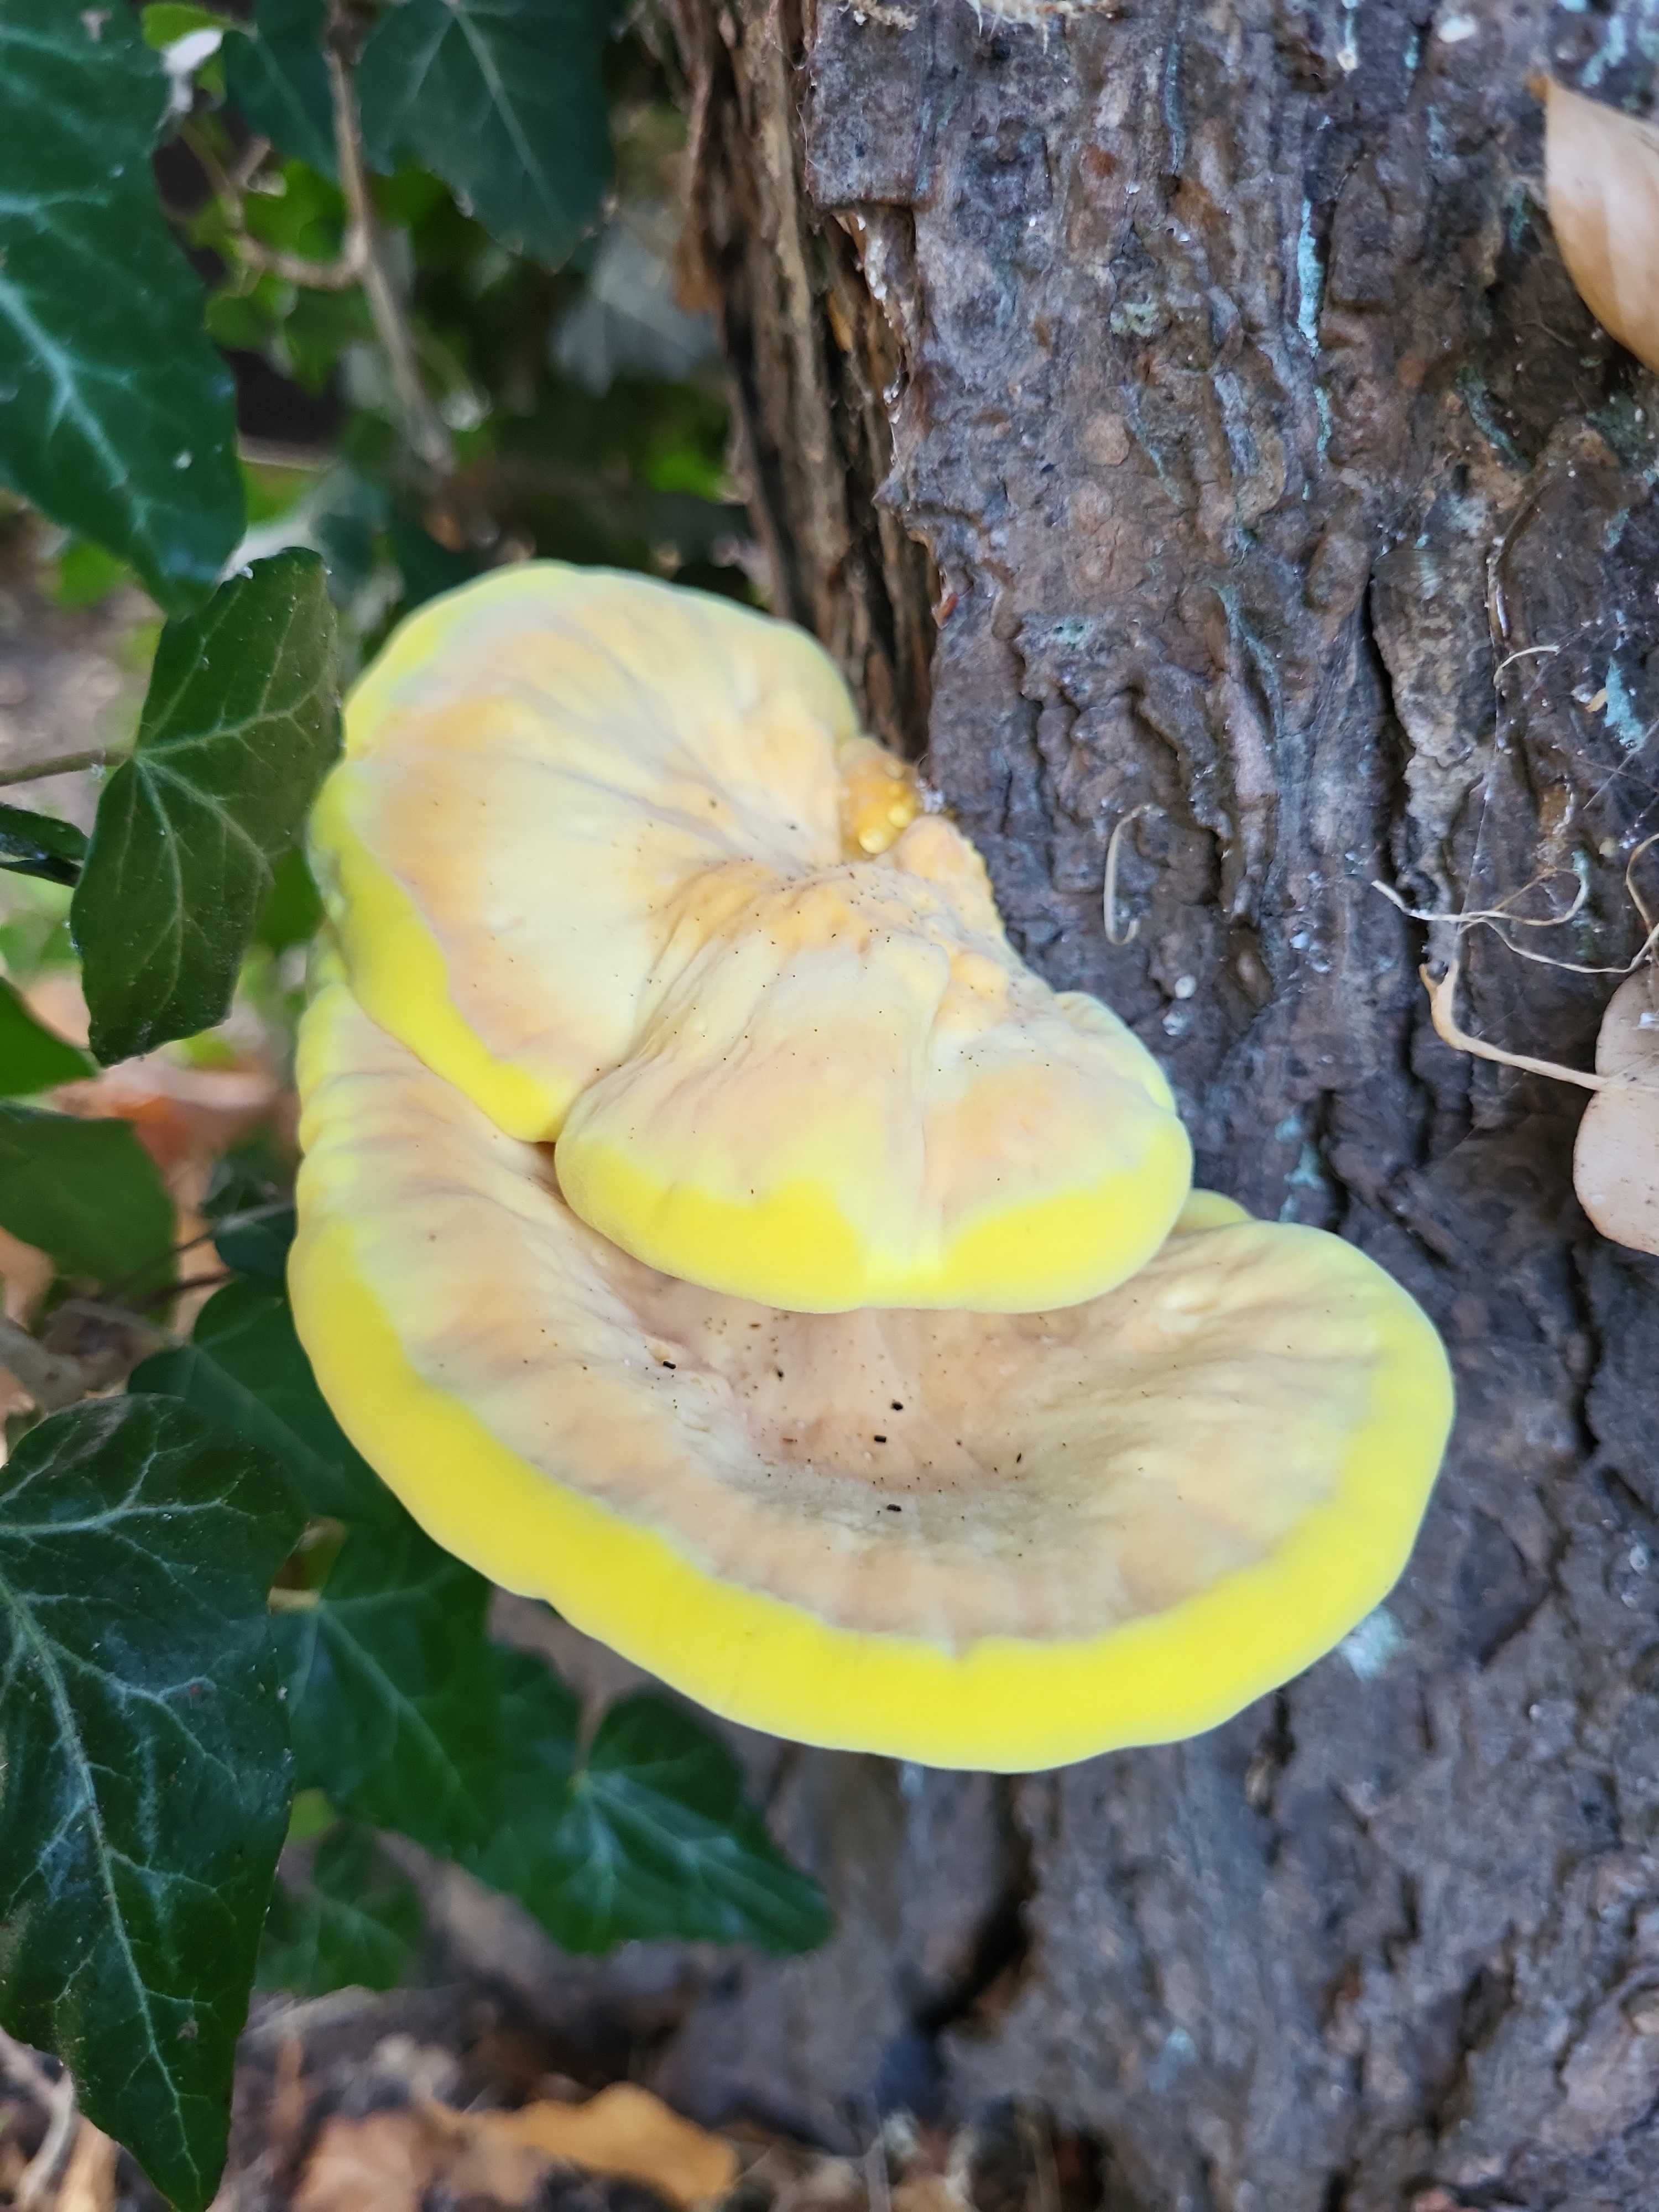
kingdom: Fungi
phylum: Basidiomycota
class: Agaricomycetes
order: Polyporales
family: Laetiporaceae
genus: Laetiporus
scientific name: Laetiporus sulphureus
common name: svovlporesvamp
